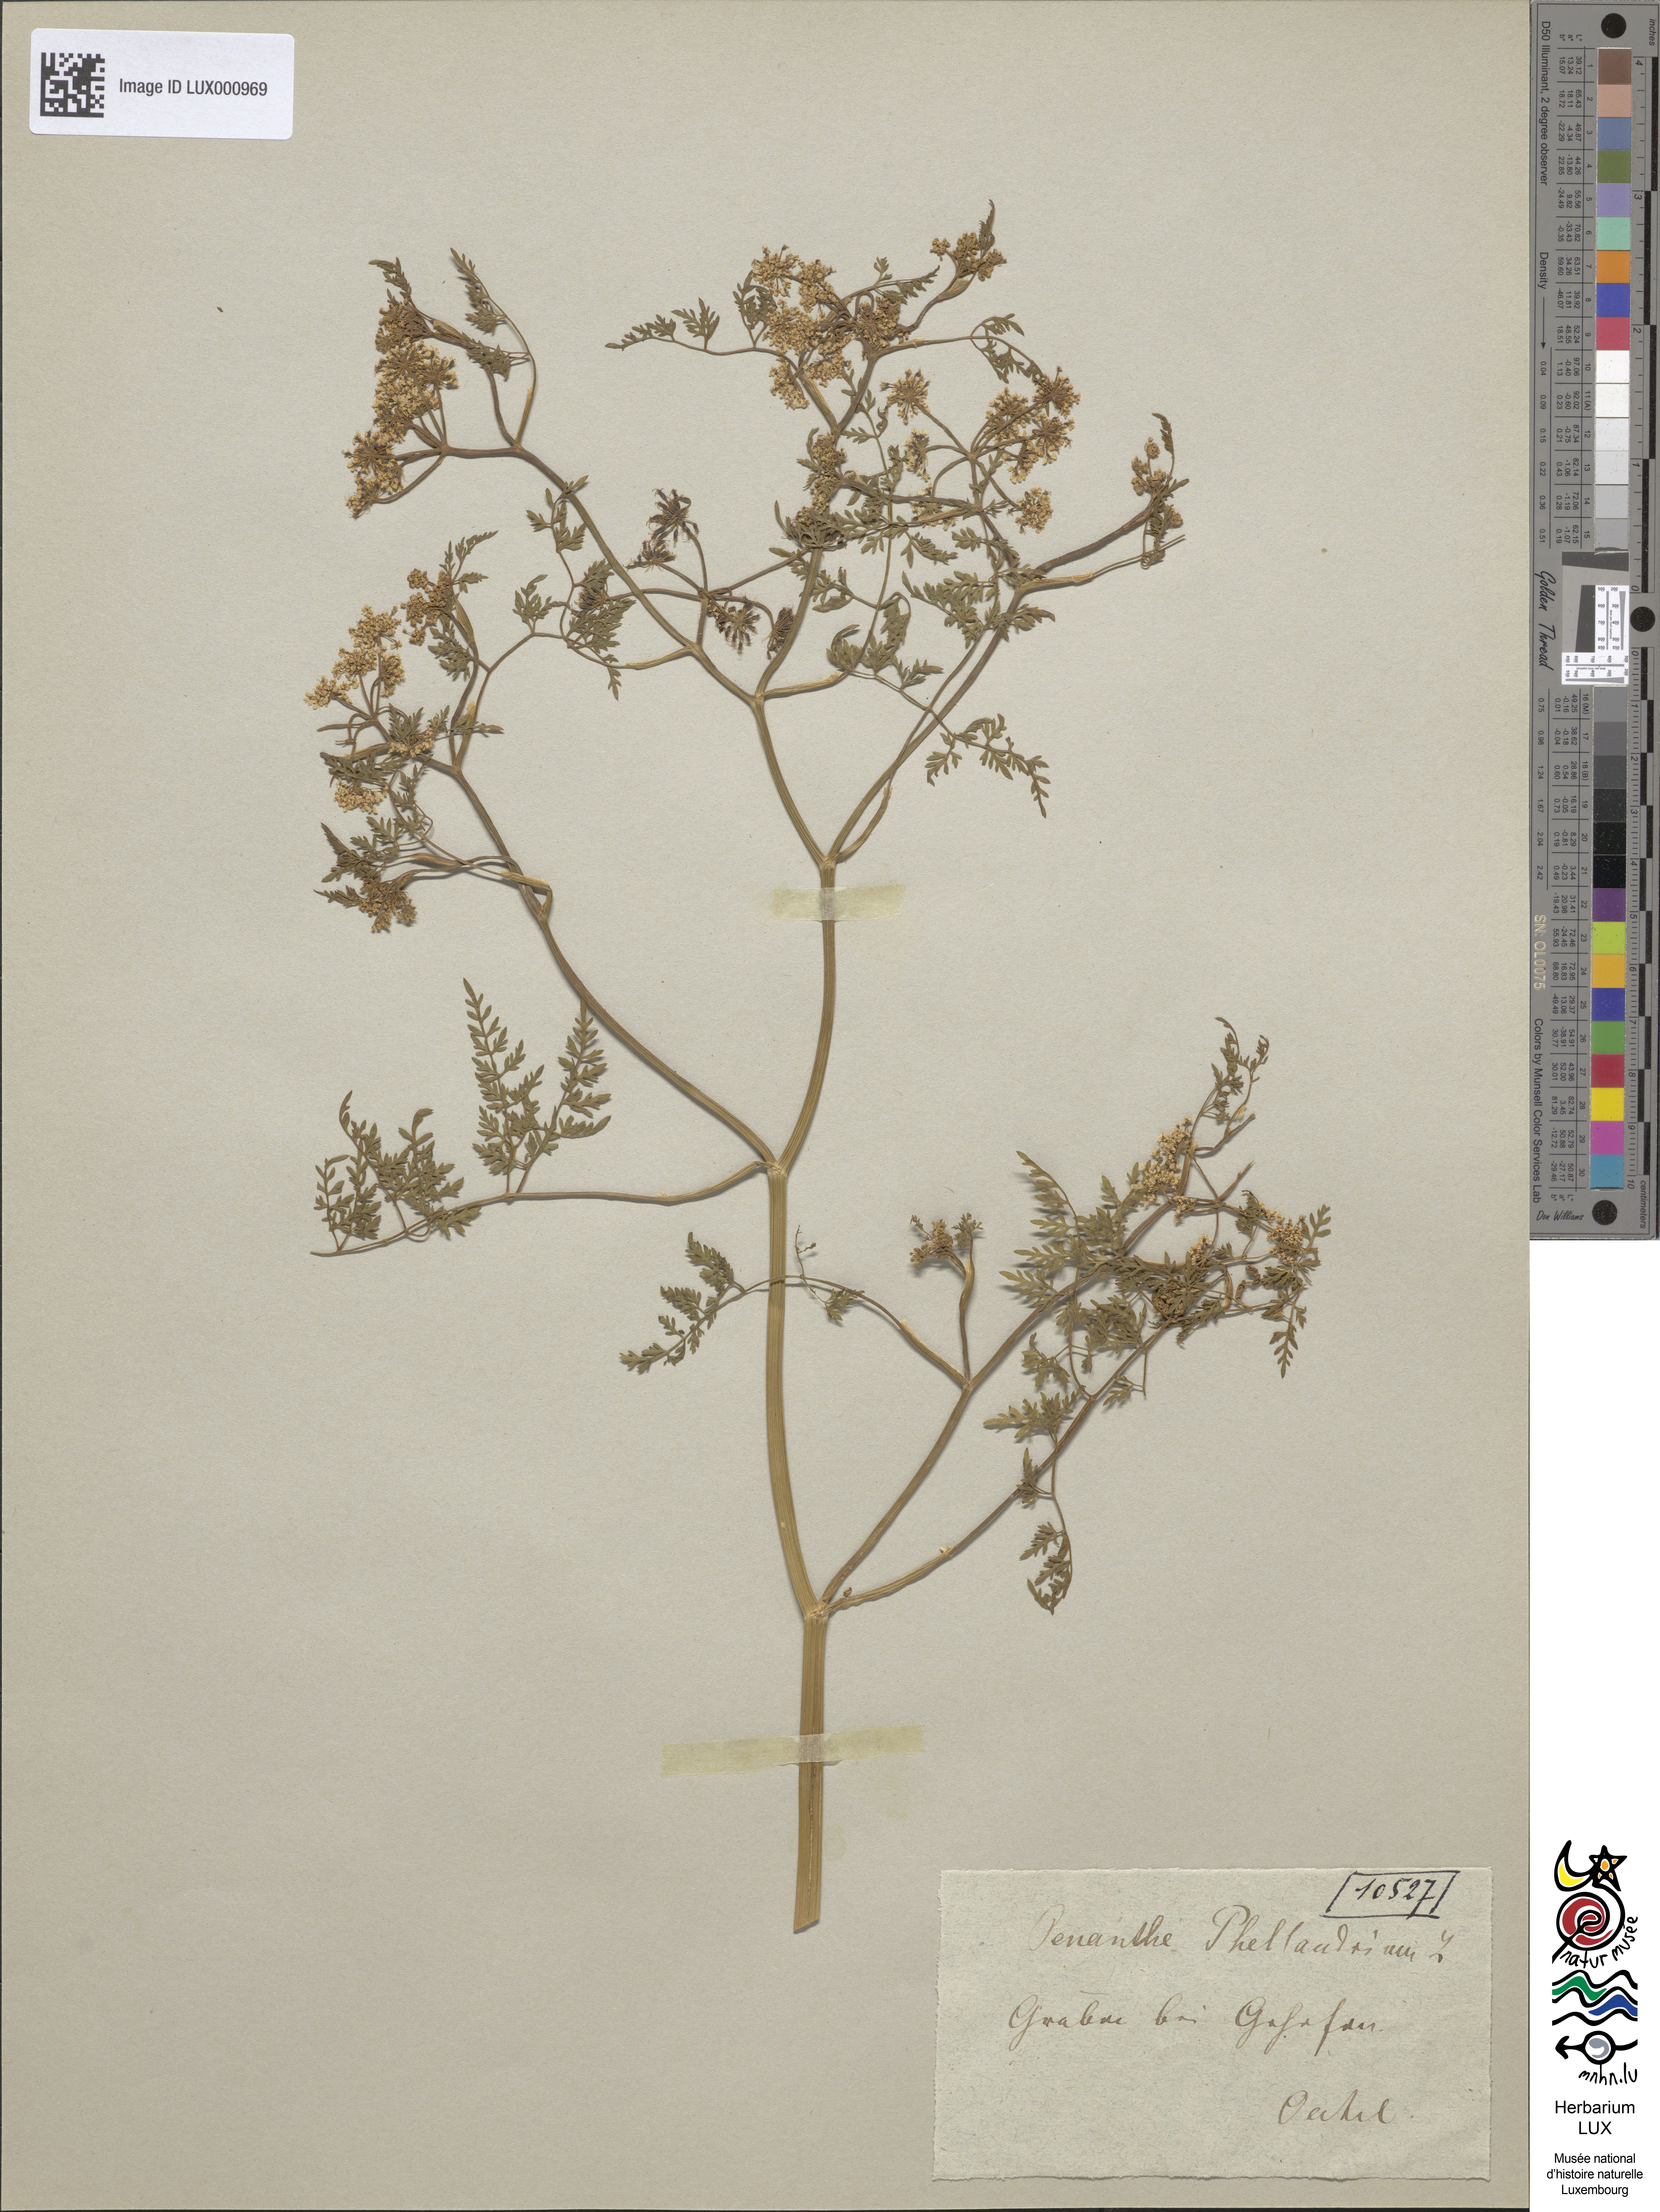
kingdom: Plantae
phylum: Tracheophyta
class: Magnoliopsida
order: Apiales
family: Apiaceae
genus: Oenanthe
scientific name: Oenanthe aquatica
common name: Fine-leaved water-dropwort
